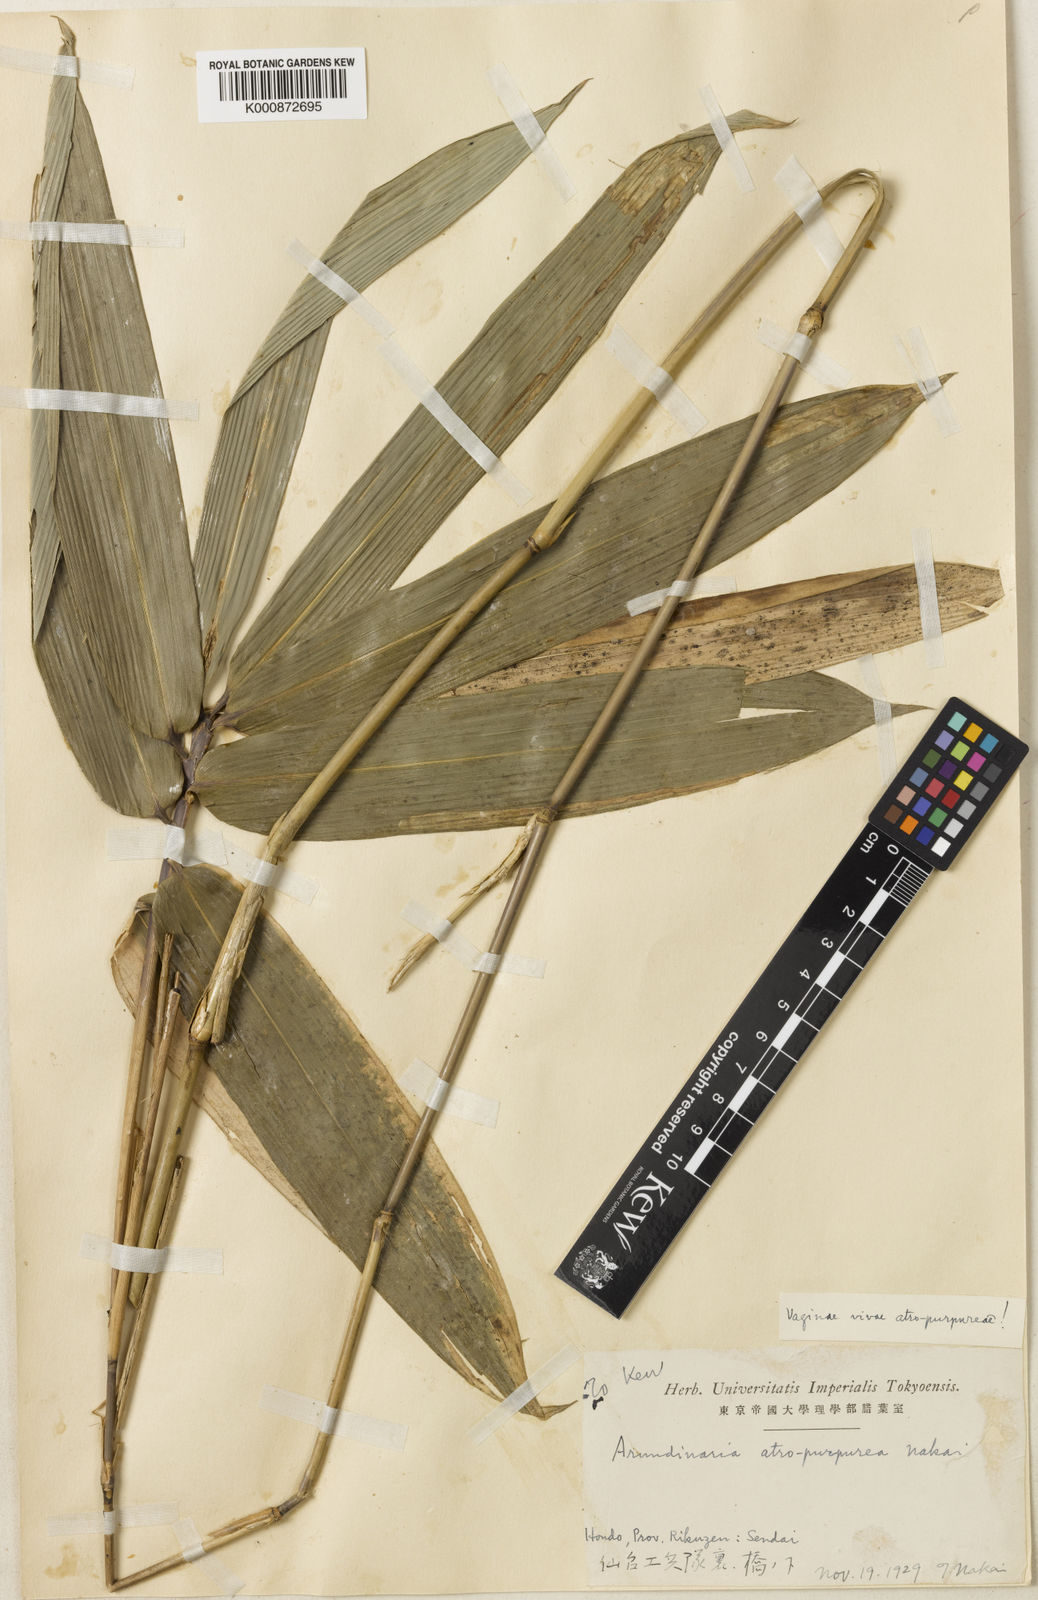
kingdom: Plantae
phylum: Tracheophyta
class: Liliopsida
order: Poales
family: Poaceae
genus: Sasaella
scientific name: Sasaella masamuneana
